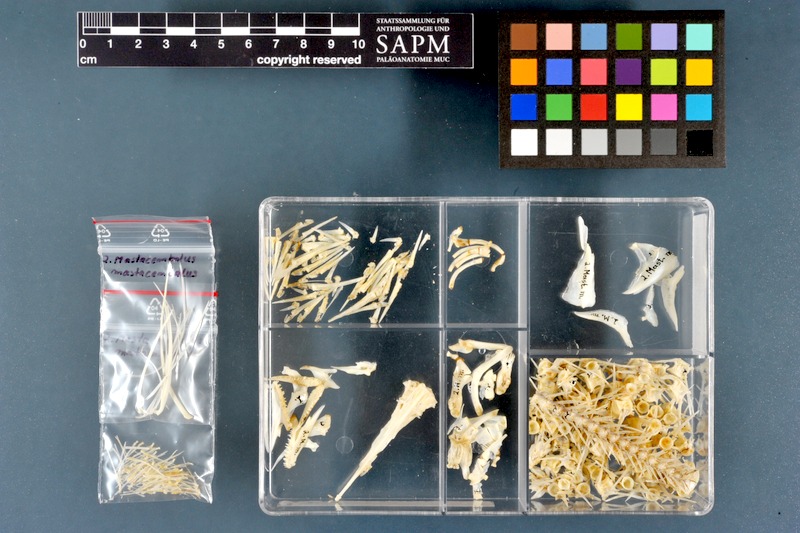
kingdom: Animalia
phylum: Chordata
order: Synbranchiformes
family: Mastacembelidae
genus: Mastacembelus
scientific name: Mastacembelus mastacembelus
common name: Mesopotamian spiny eel
